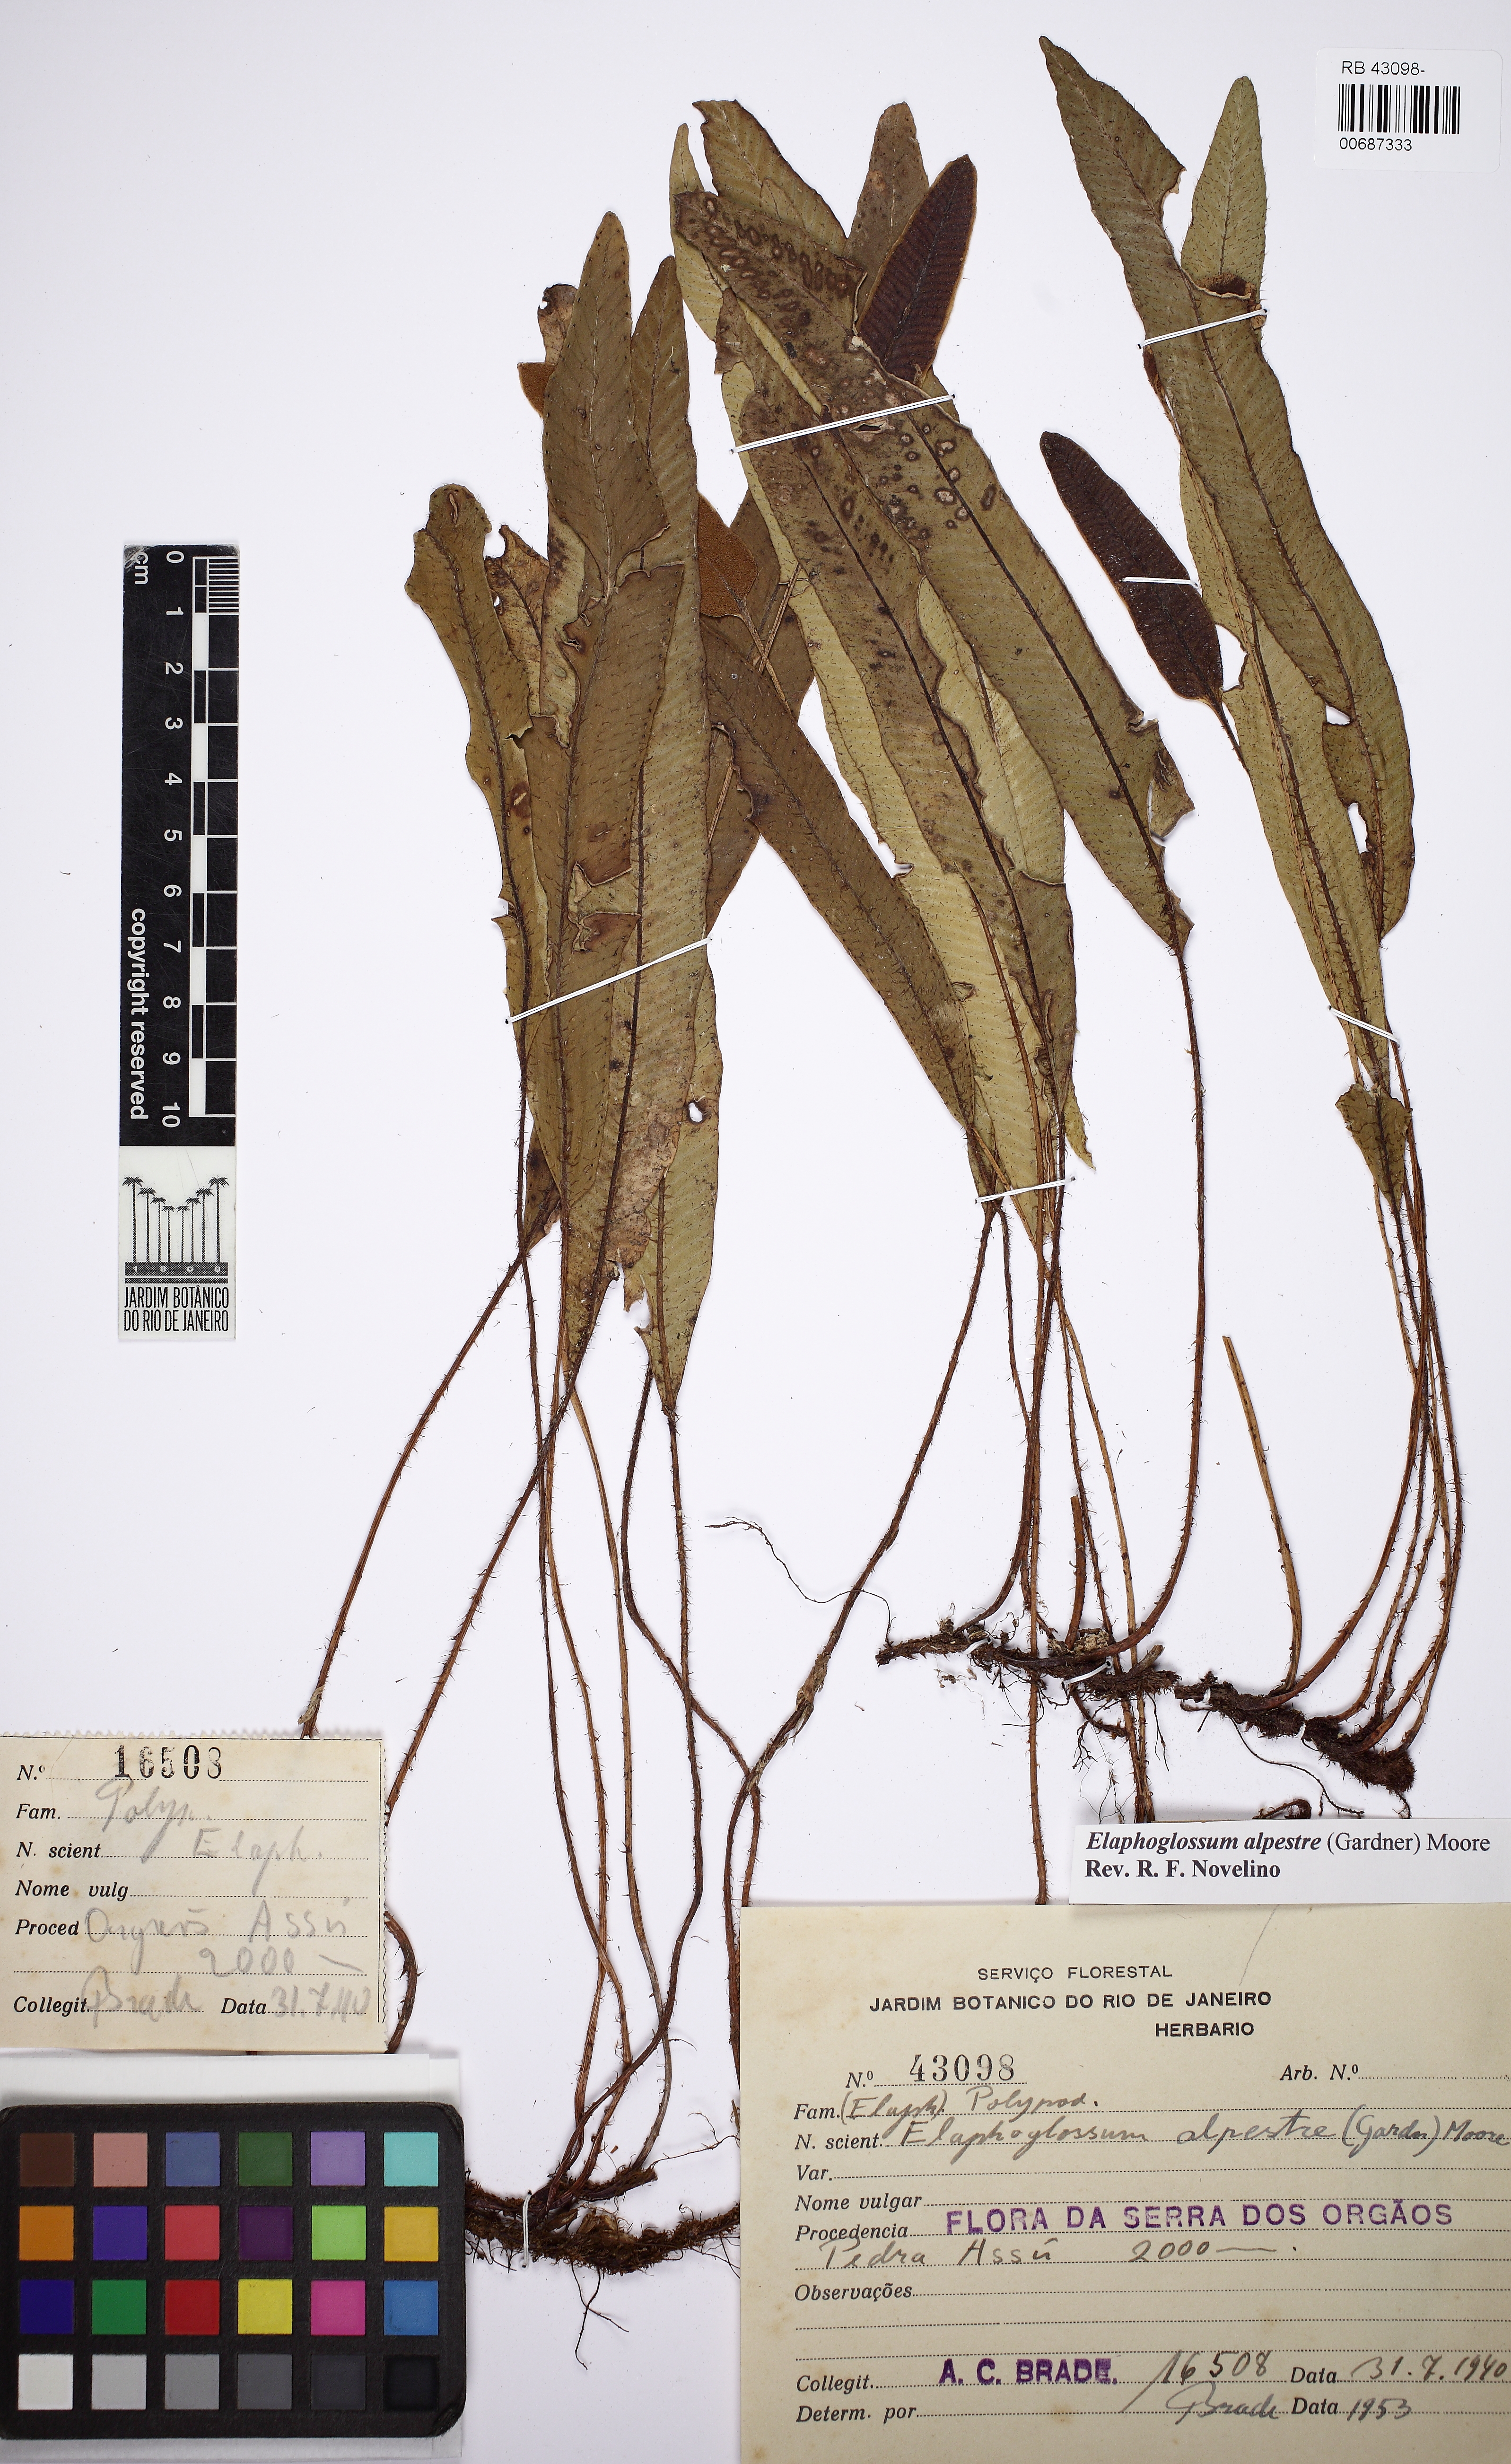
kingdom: Plantae
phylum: Tracheophyta
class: Polypodiopsida
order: Polypodiales
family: Dryopteridaceae
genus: Elaphoglossum
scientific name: Elaphoglossum alpestre
